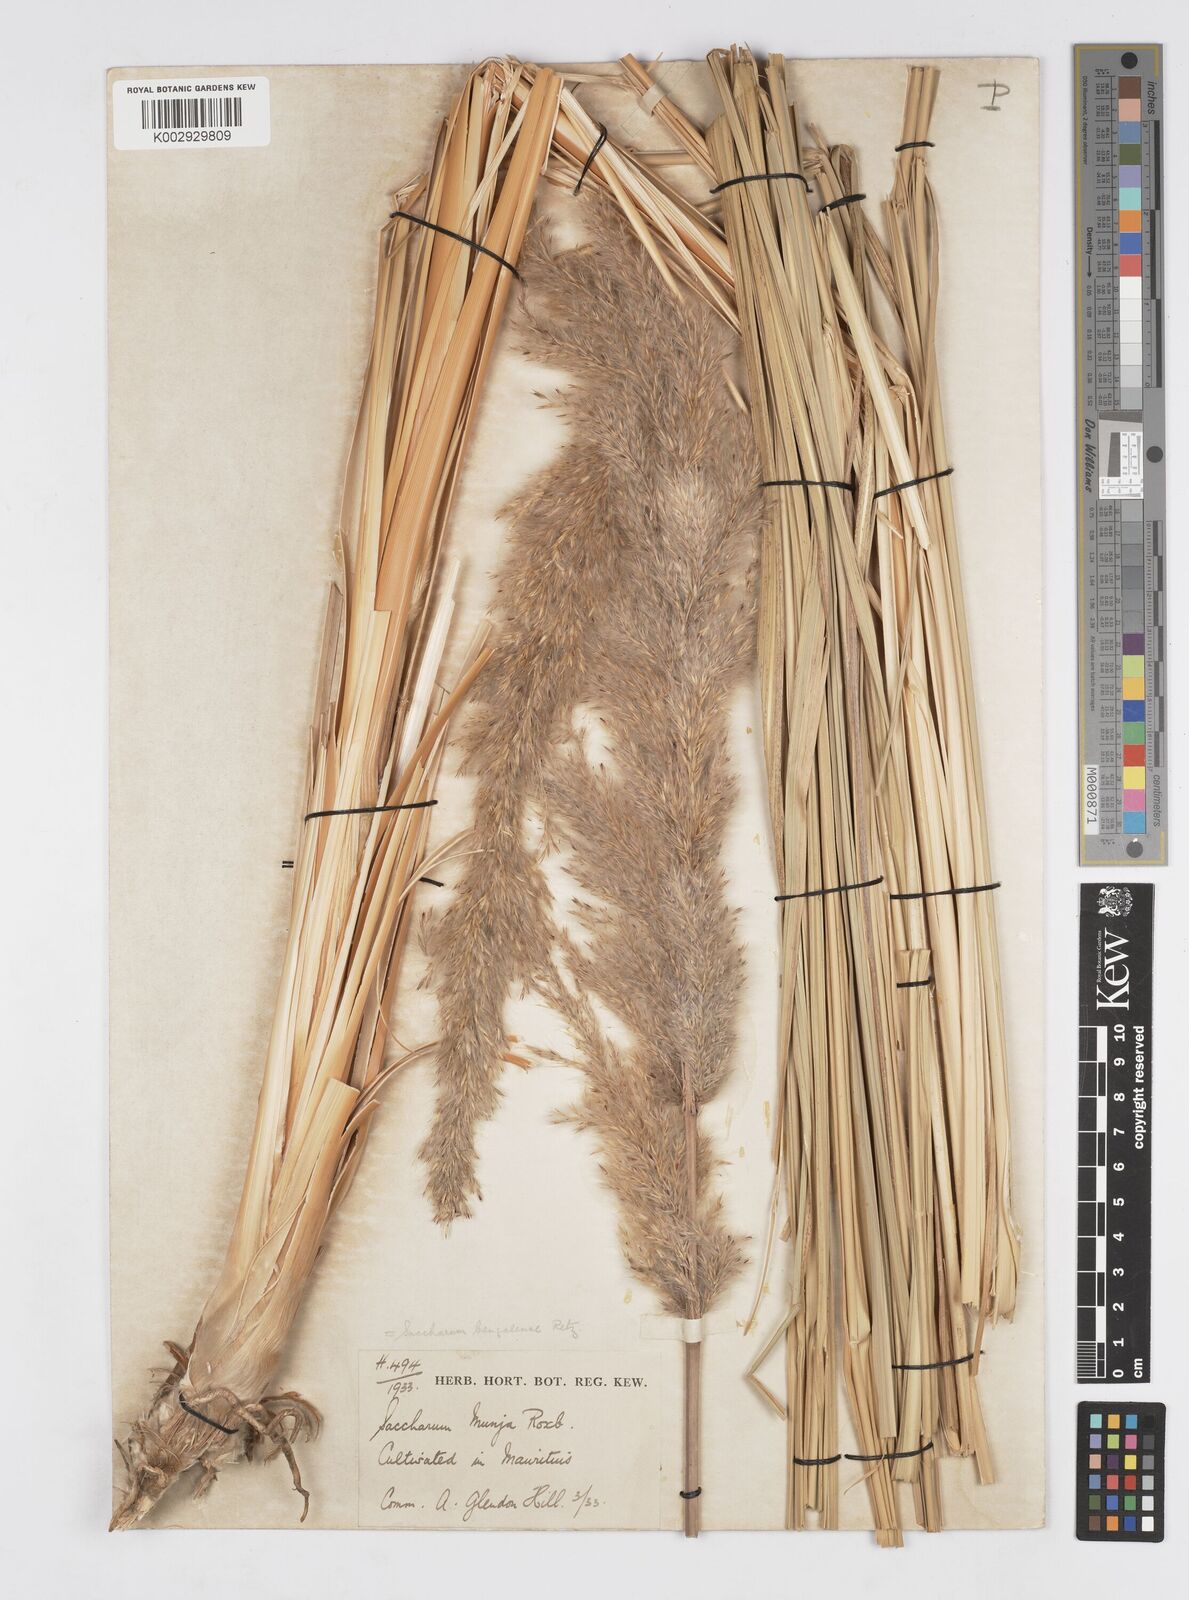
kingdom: Plantae
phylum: Tracheophyta
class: Liliopsida
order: Poales
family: Poaceae
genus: Tripidium
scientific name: Tripidium bengalense
